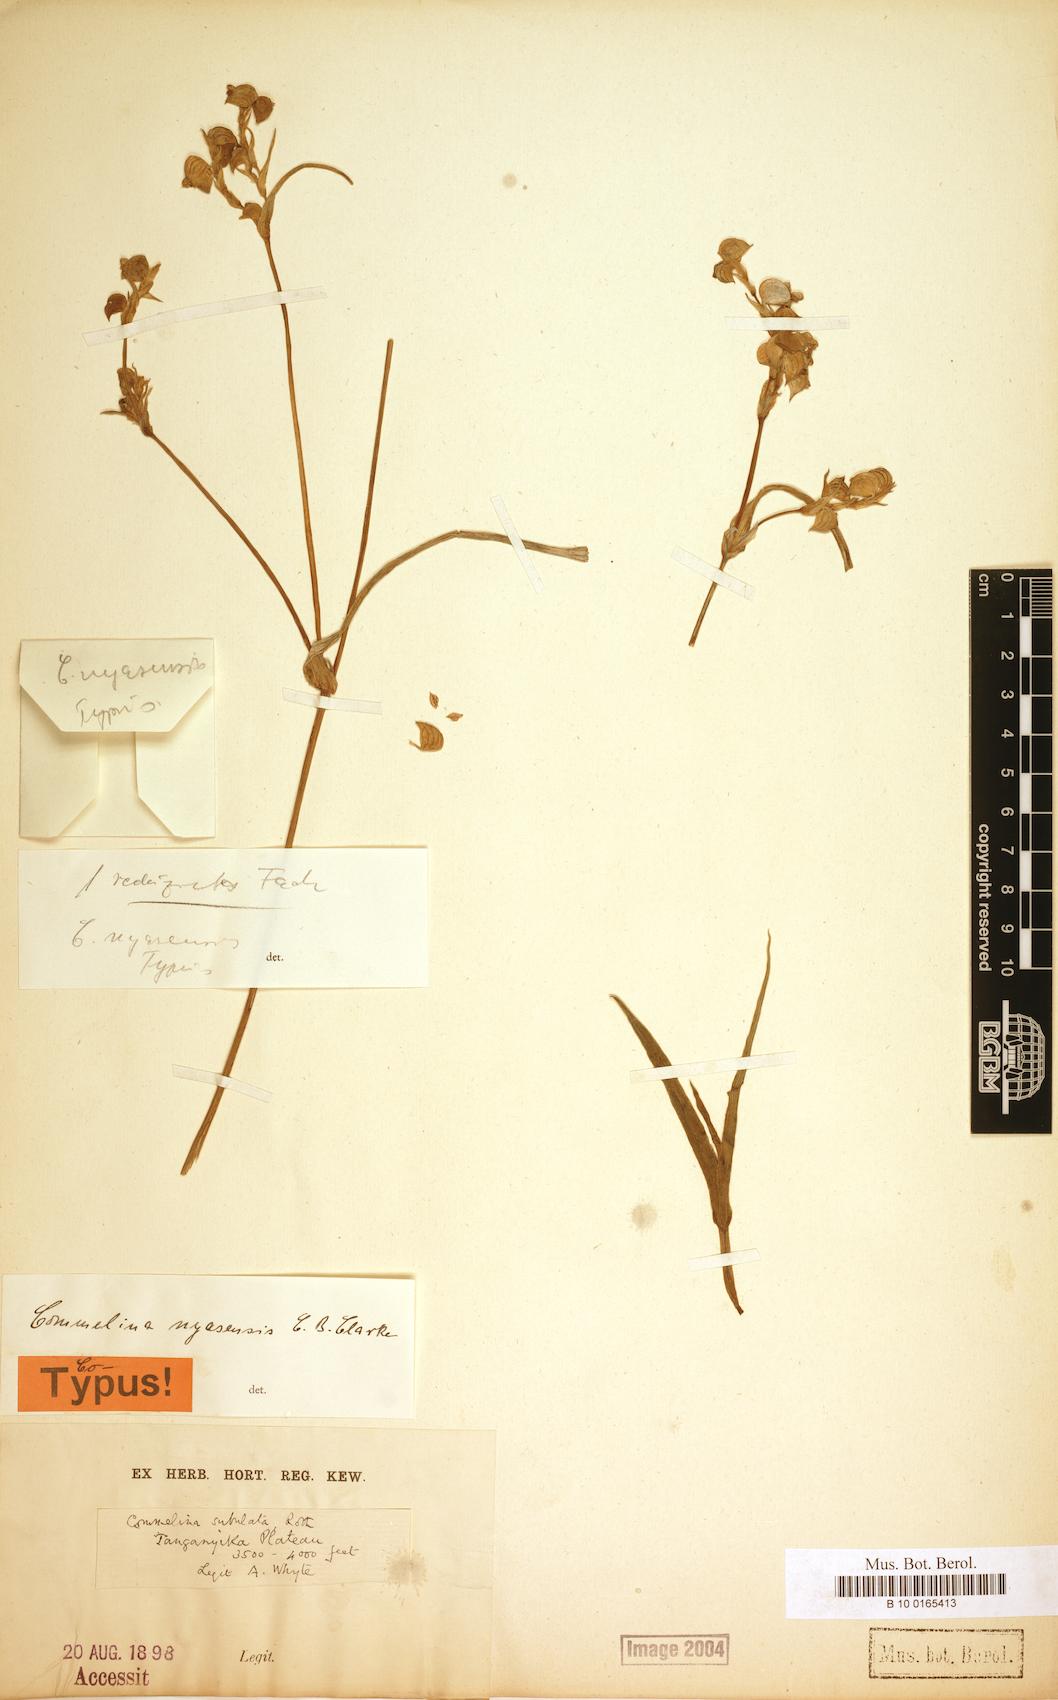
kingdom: Plantae
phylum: Tracheophyta
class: Liliopsida
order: Commelinales
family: Commelinaceae
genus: Commelina
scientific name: Commelina nyasensis
